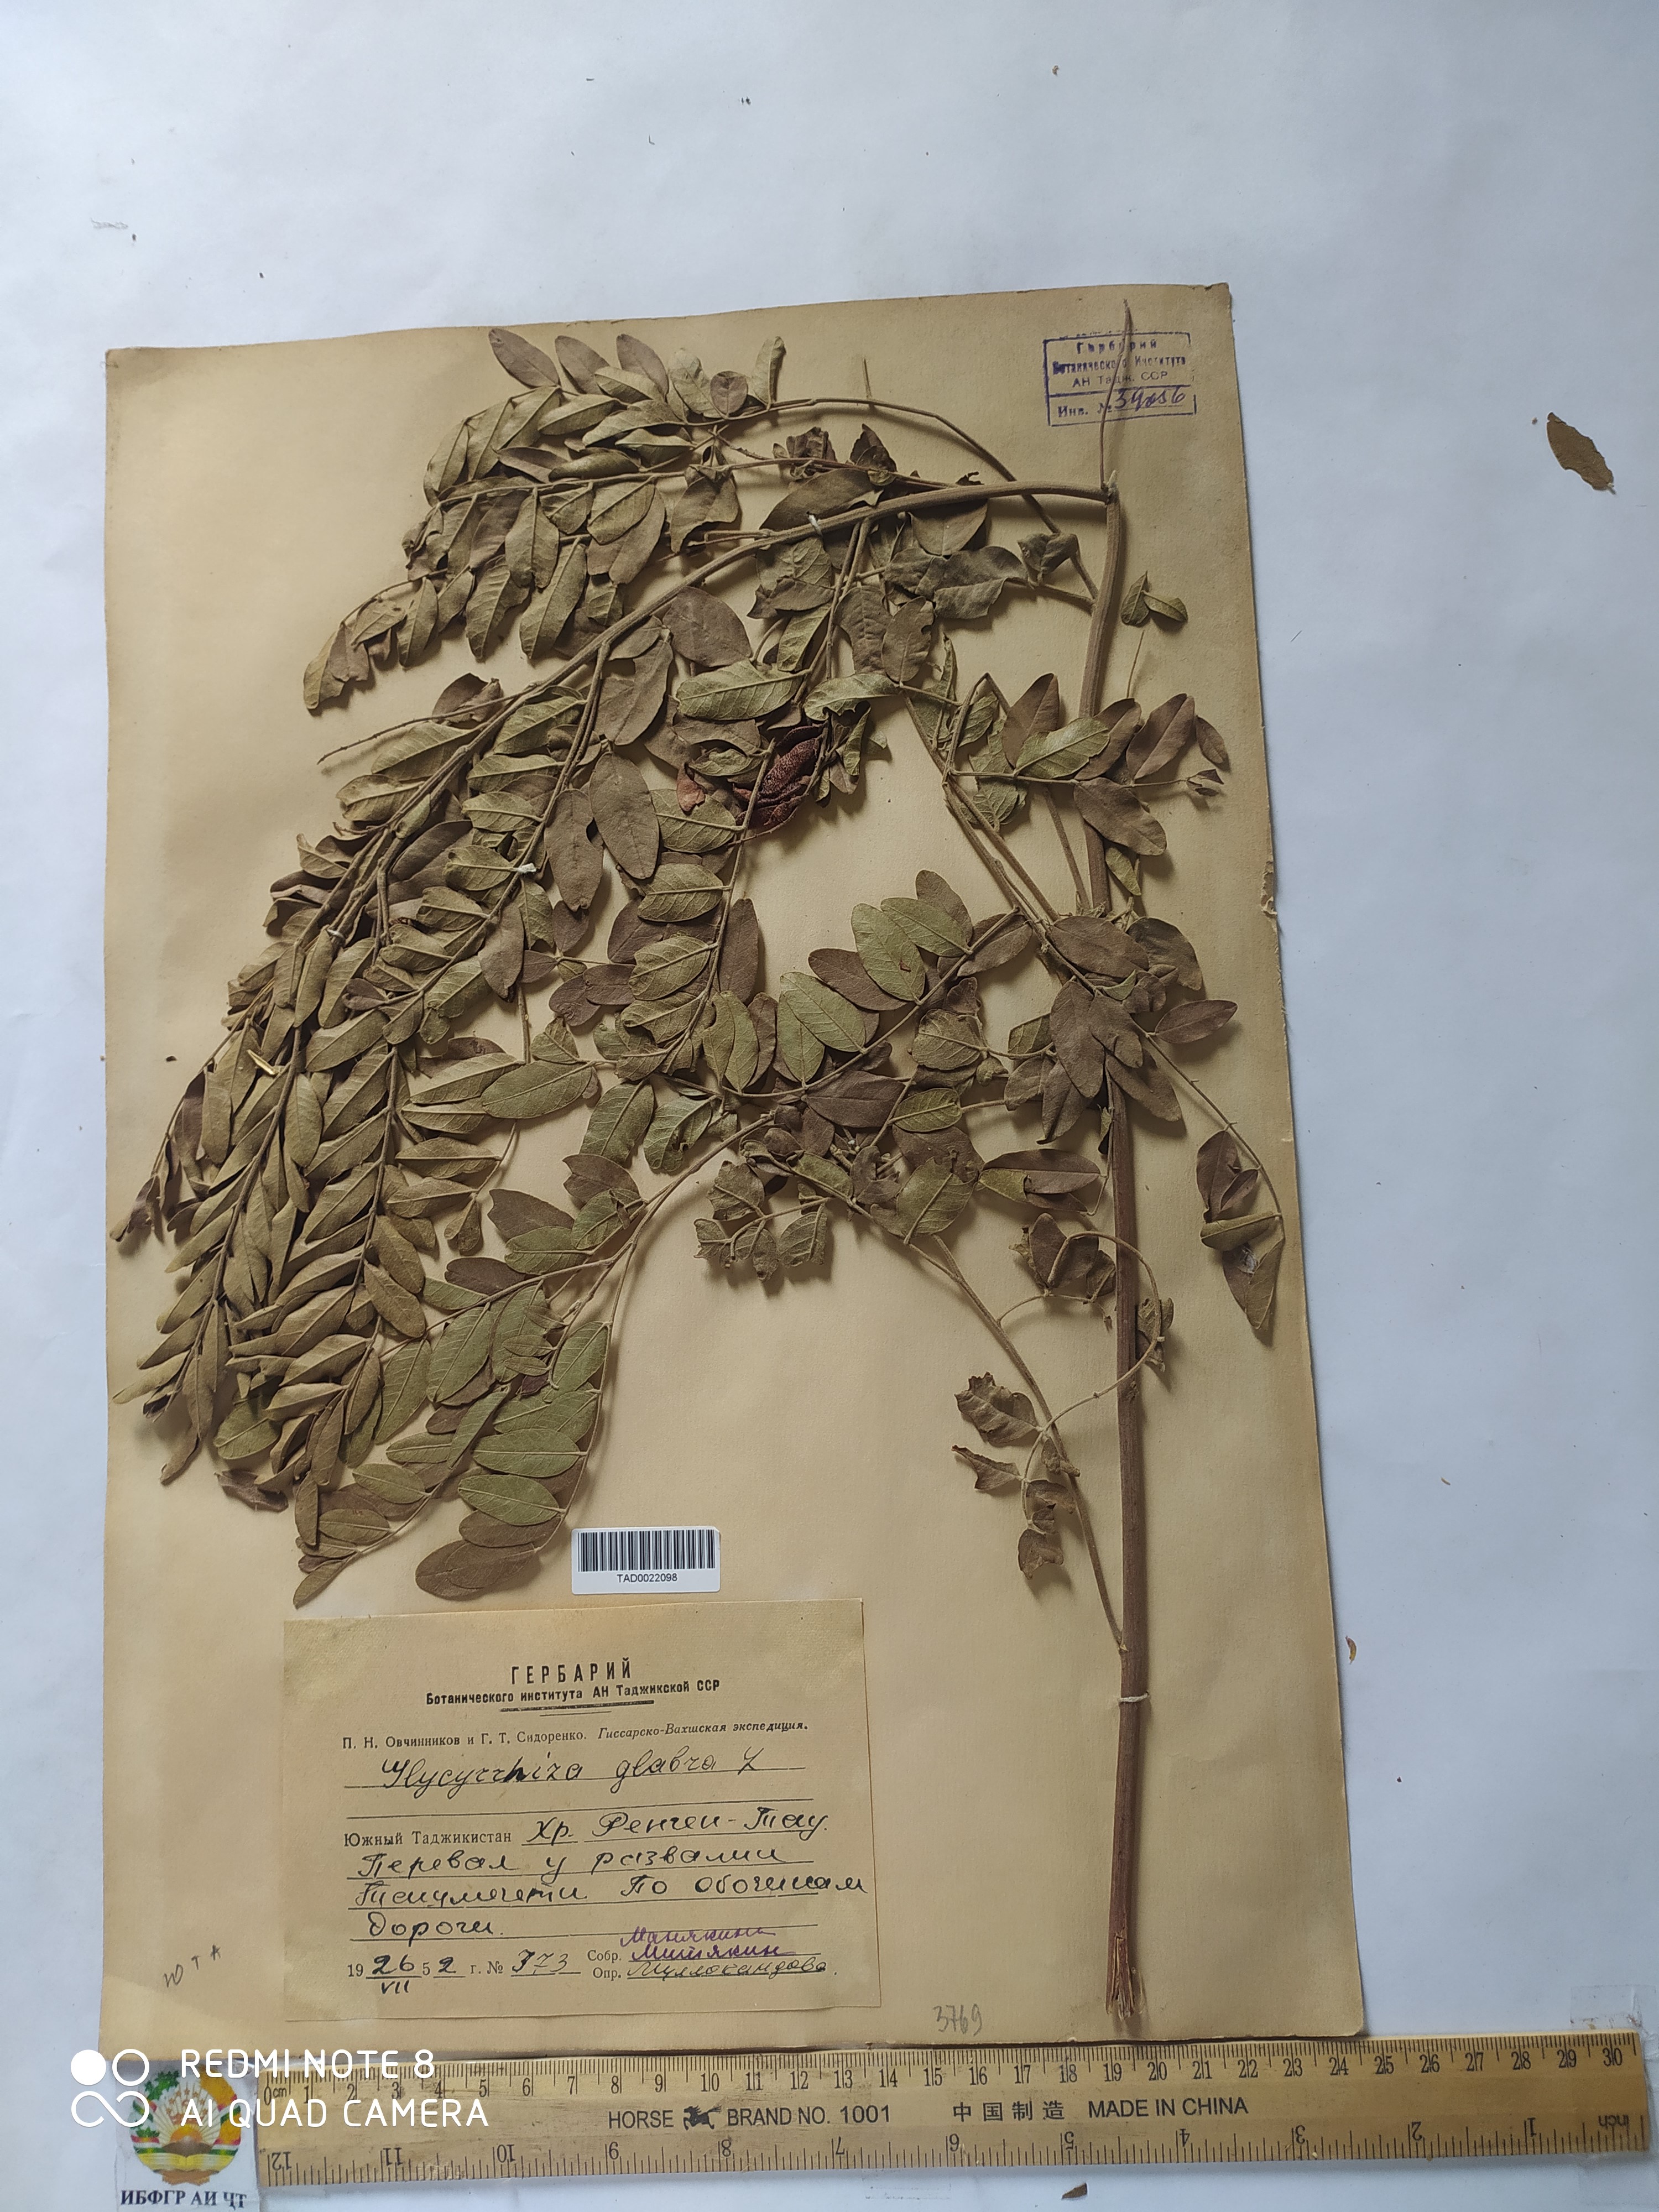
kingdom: Plantae
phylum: Tracheophyta
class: Magnoliopsida
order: Fabales
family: Fabaceae
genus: Glycyrrhiza
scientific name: Glycyrrhiza glabra
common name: Liquorice
